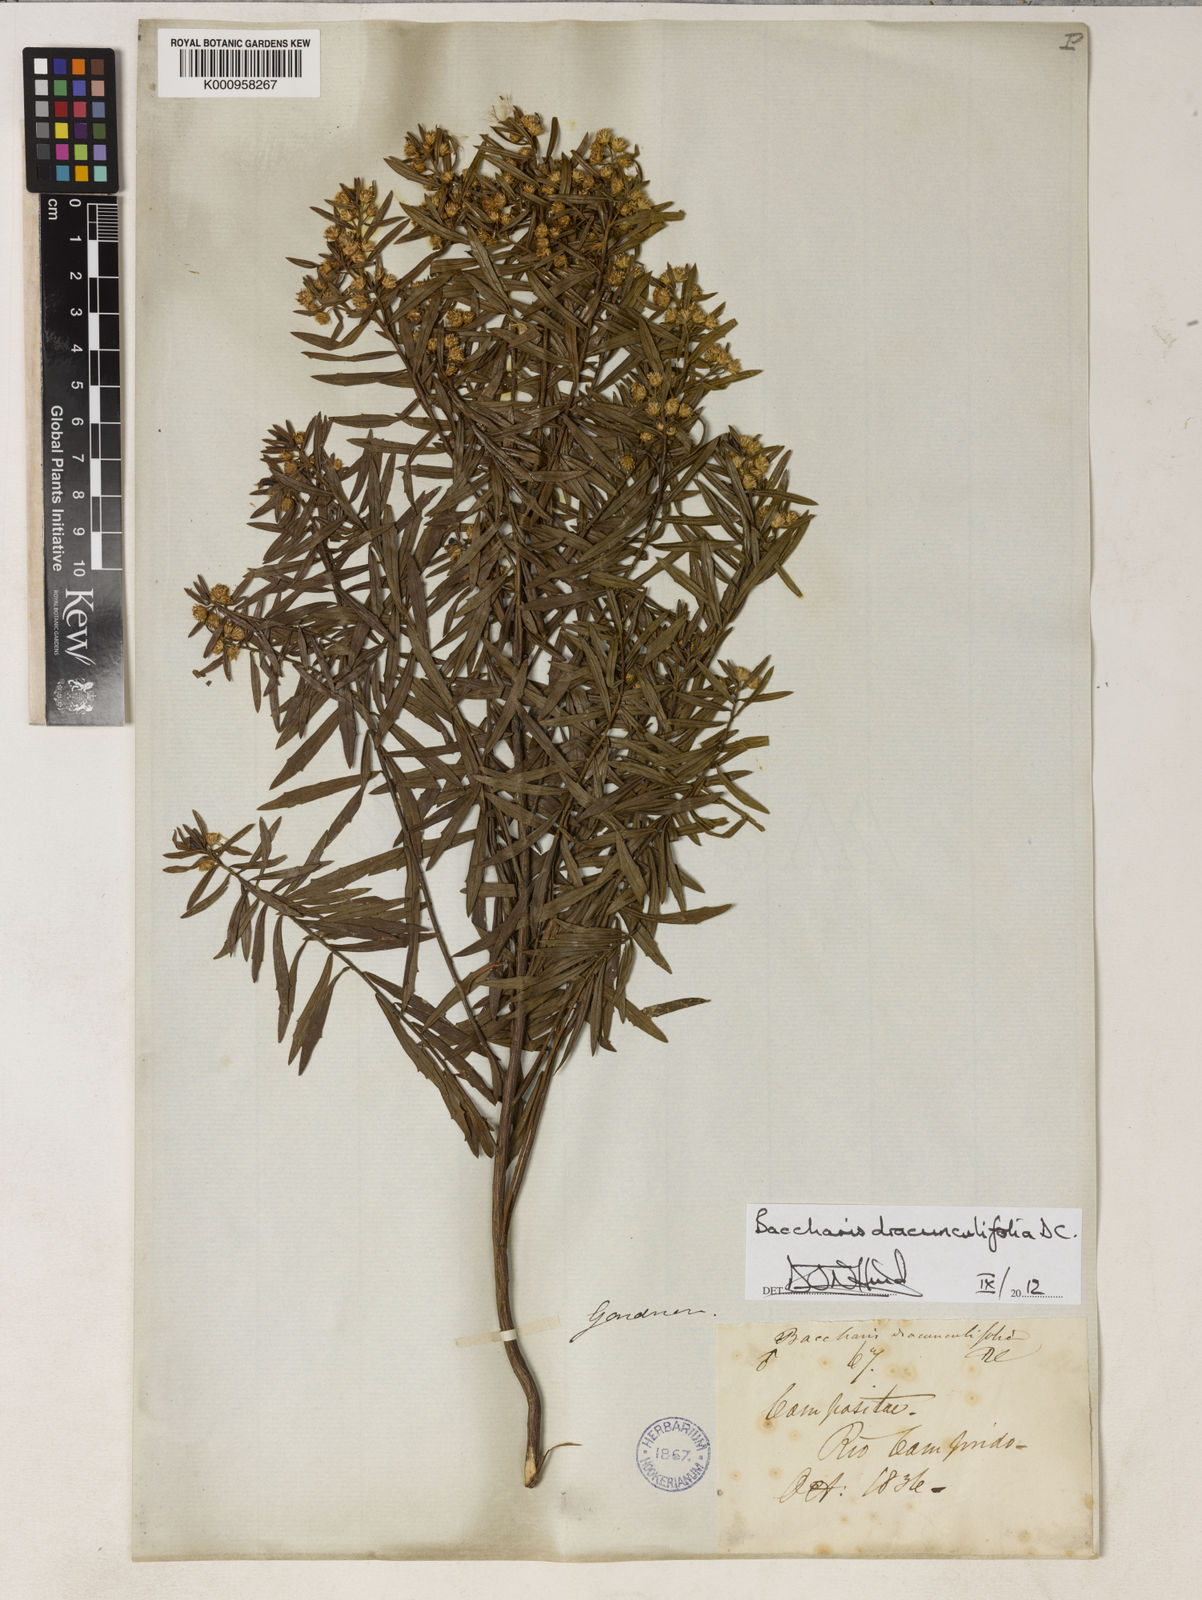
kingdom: Plantae
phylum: Tracheophyta
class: Magnoliopsida
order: Asterales
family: Asteraceae
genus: Baccharis
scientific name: Baccharis dracunculifolia
